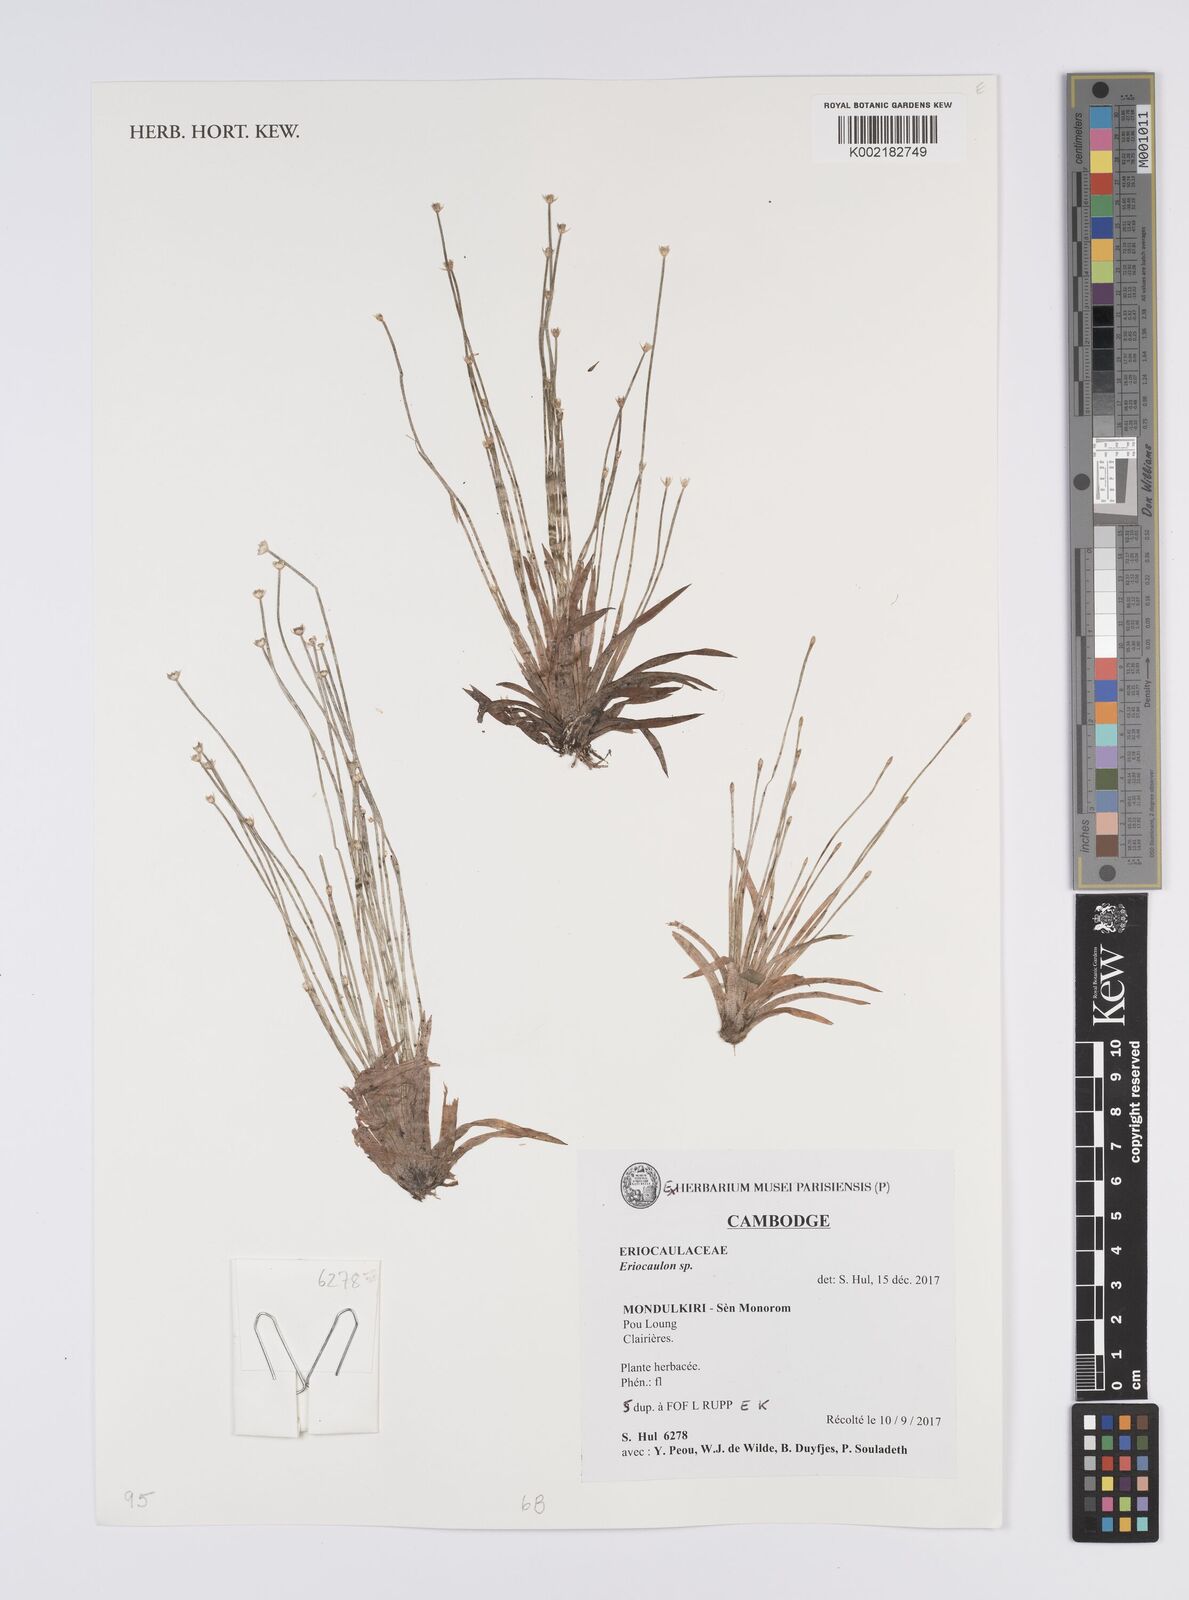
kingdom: Plantae
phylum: Tracheophyta
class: Liliopsida
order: Poales
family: Eriocaulaceae
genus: Eriocaulon
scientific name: Eriocaulon
